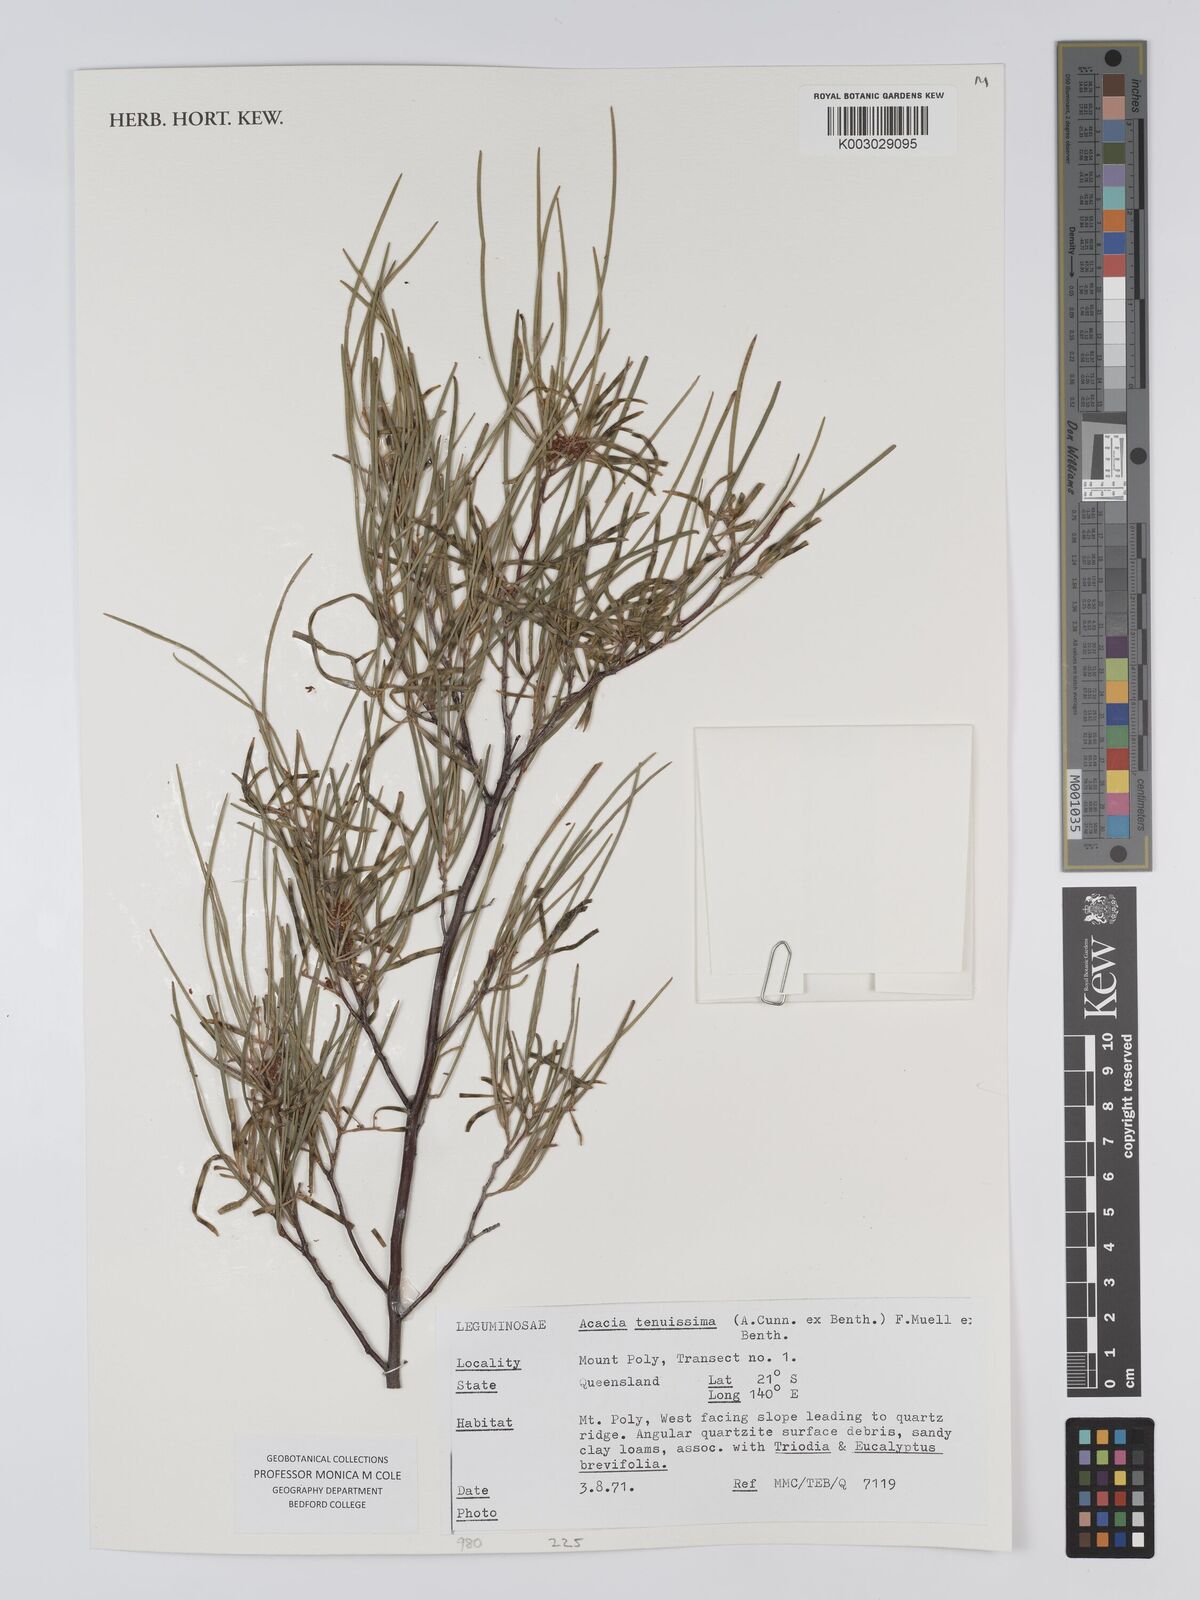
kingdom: Plantae
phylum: Tracheophyta
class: Magnoliopsida
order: Fabales
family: Fabaceae
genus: Acacia
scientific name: Acacia tenuissima
